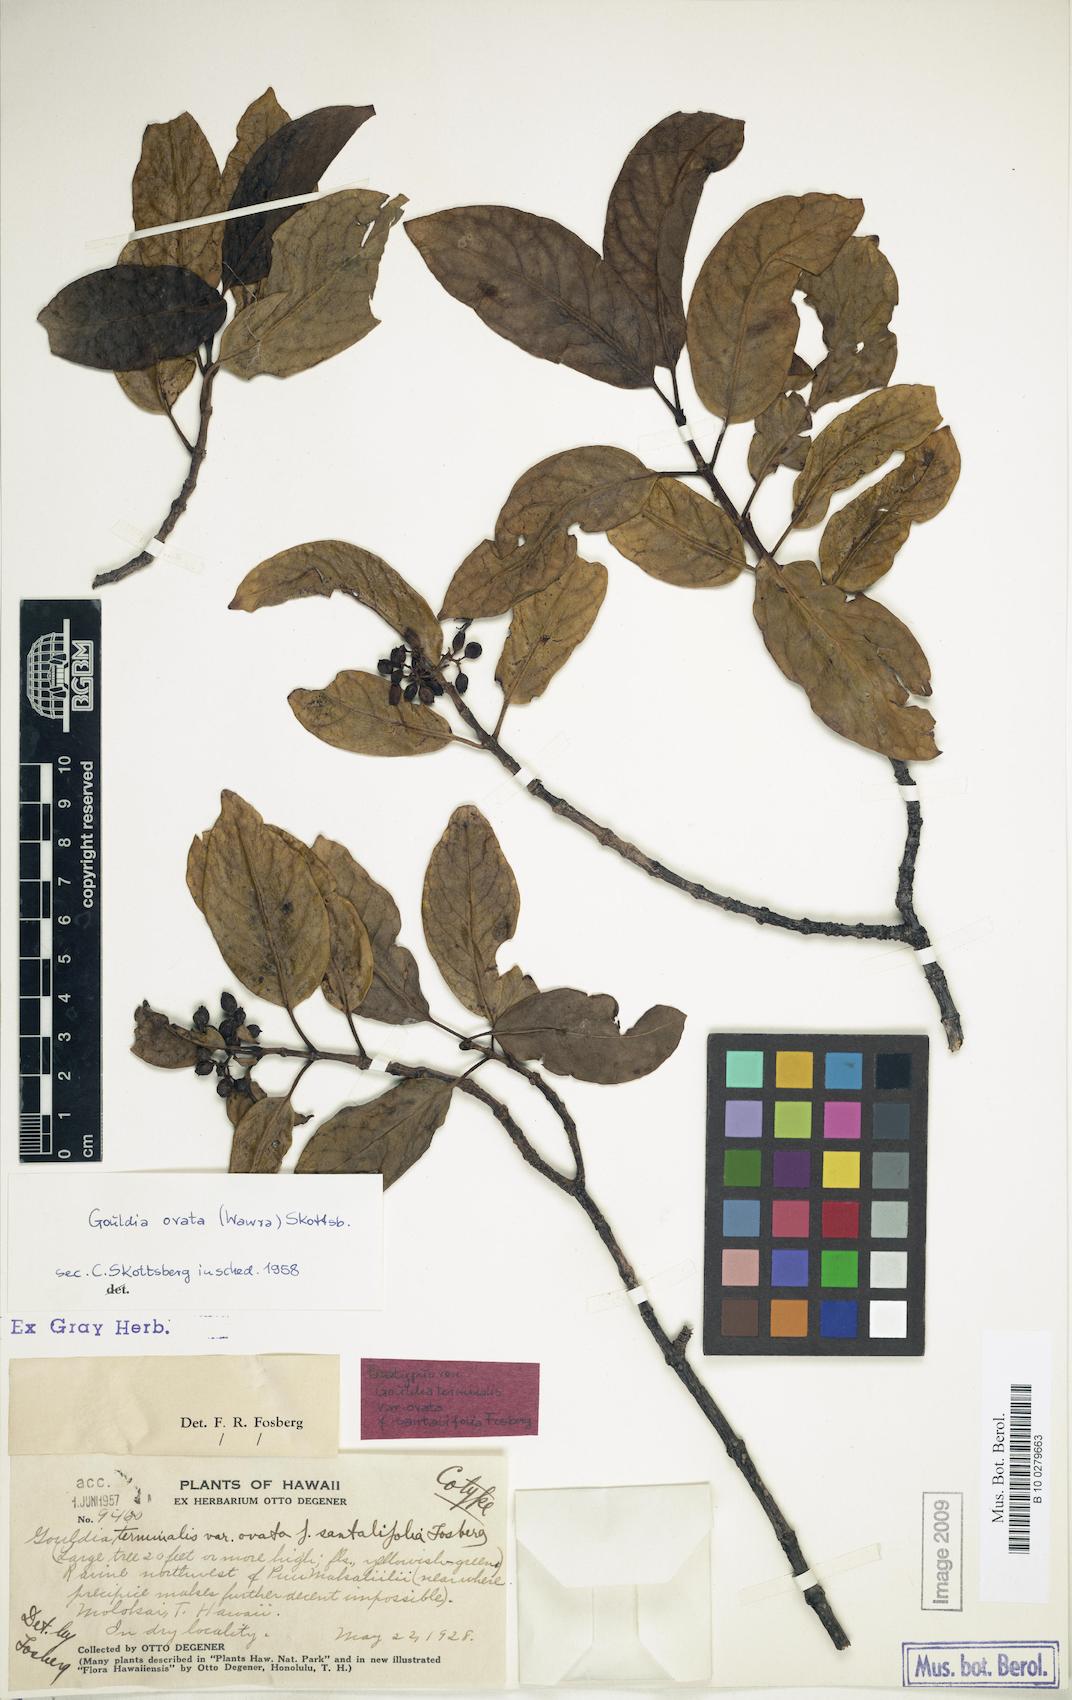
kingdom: Plantae
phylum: Tracheophyta
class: Magnoliopsida
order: Gentianales
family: Rubiaceae
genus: Kadua
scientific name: Kadua affinis
